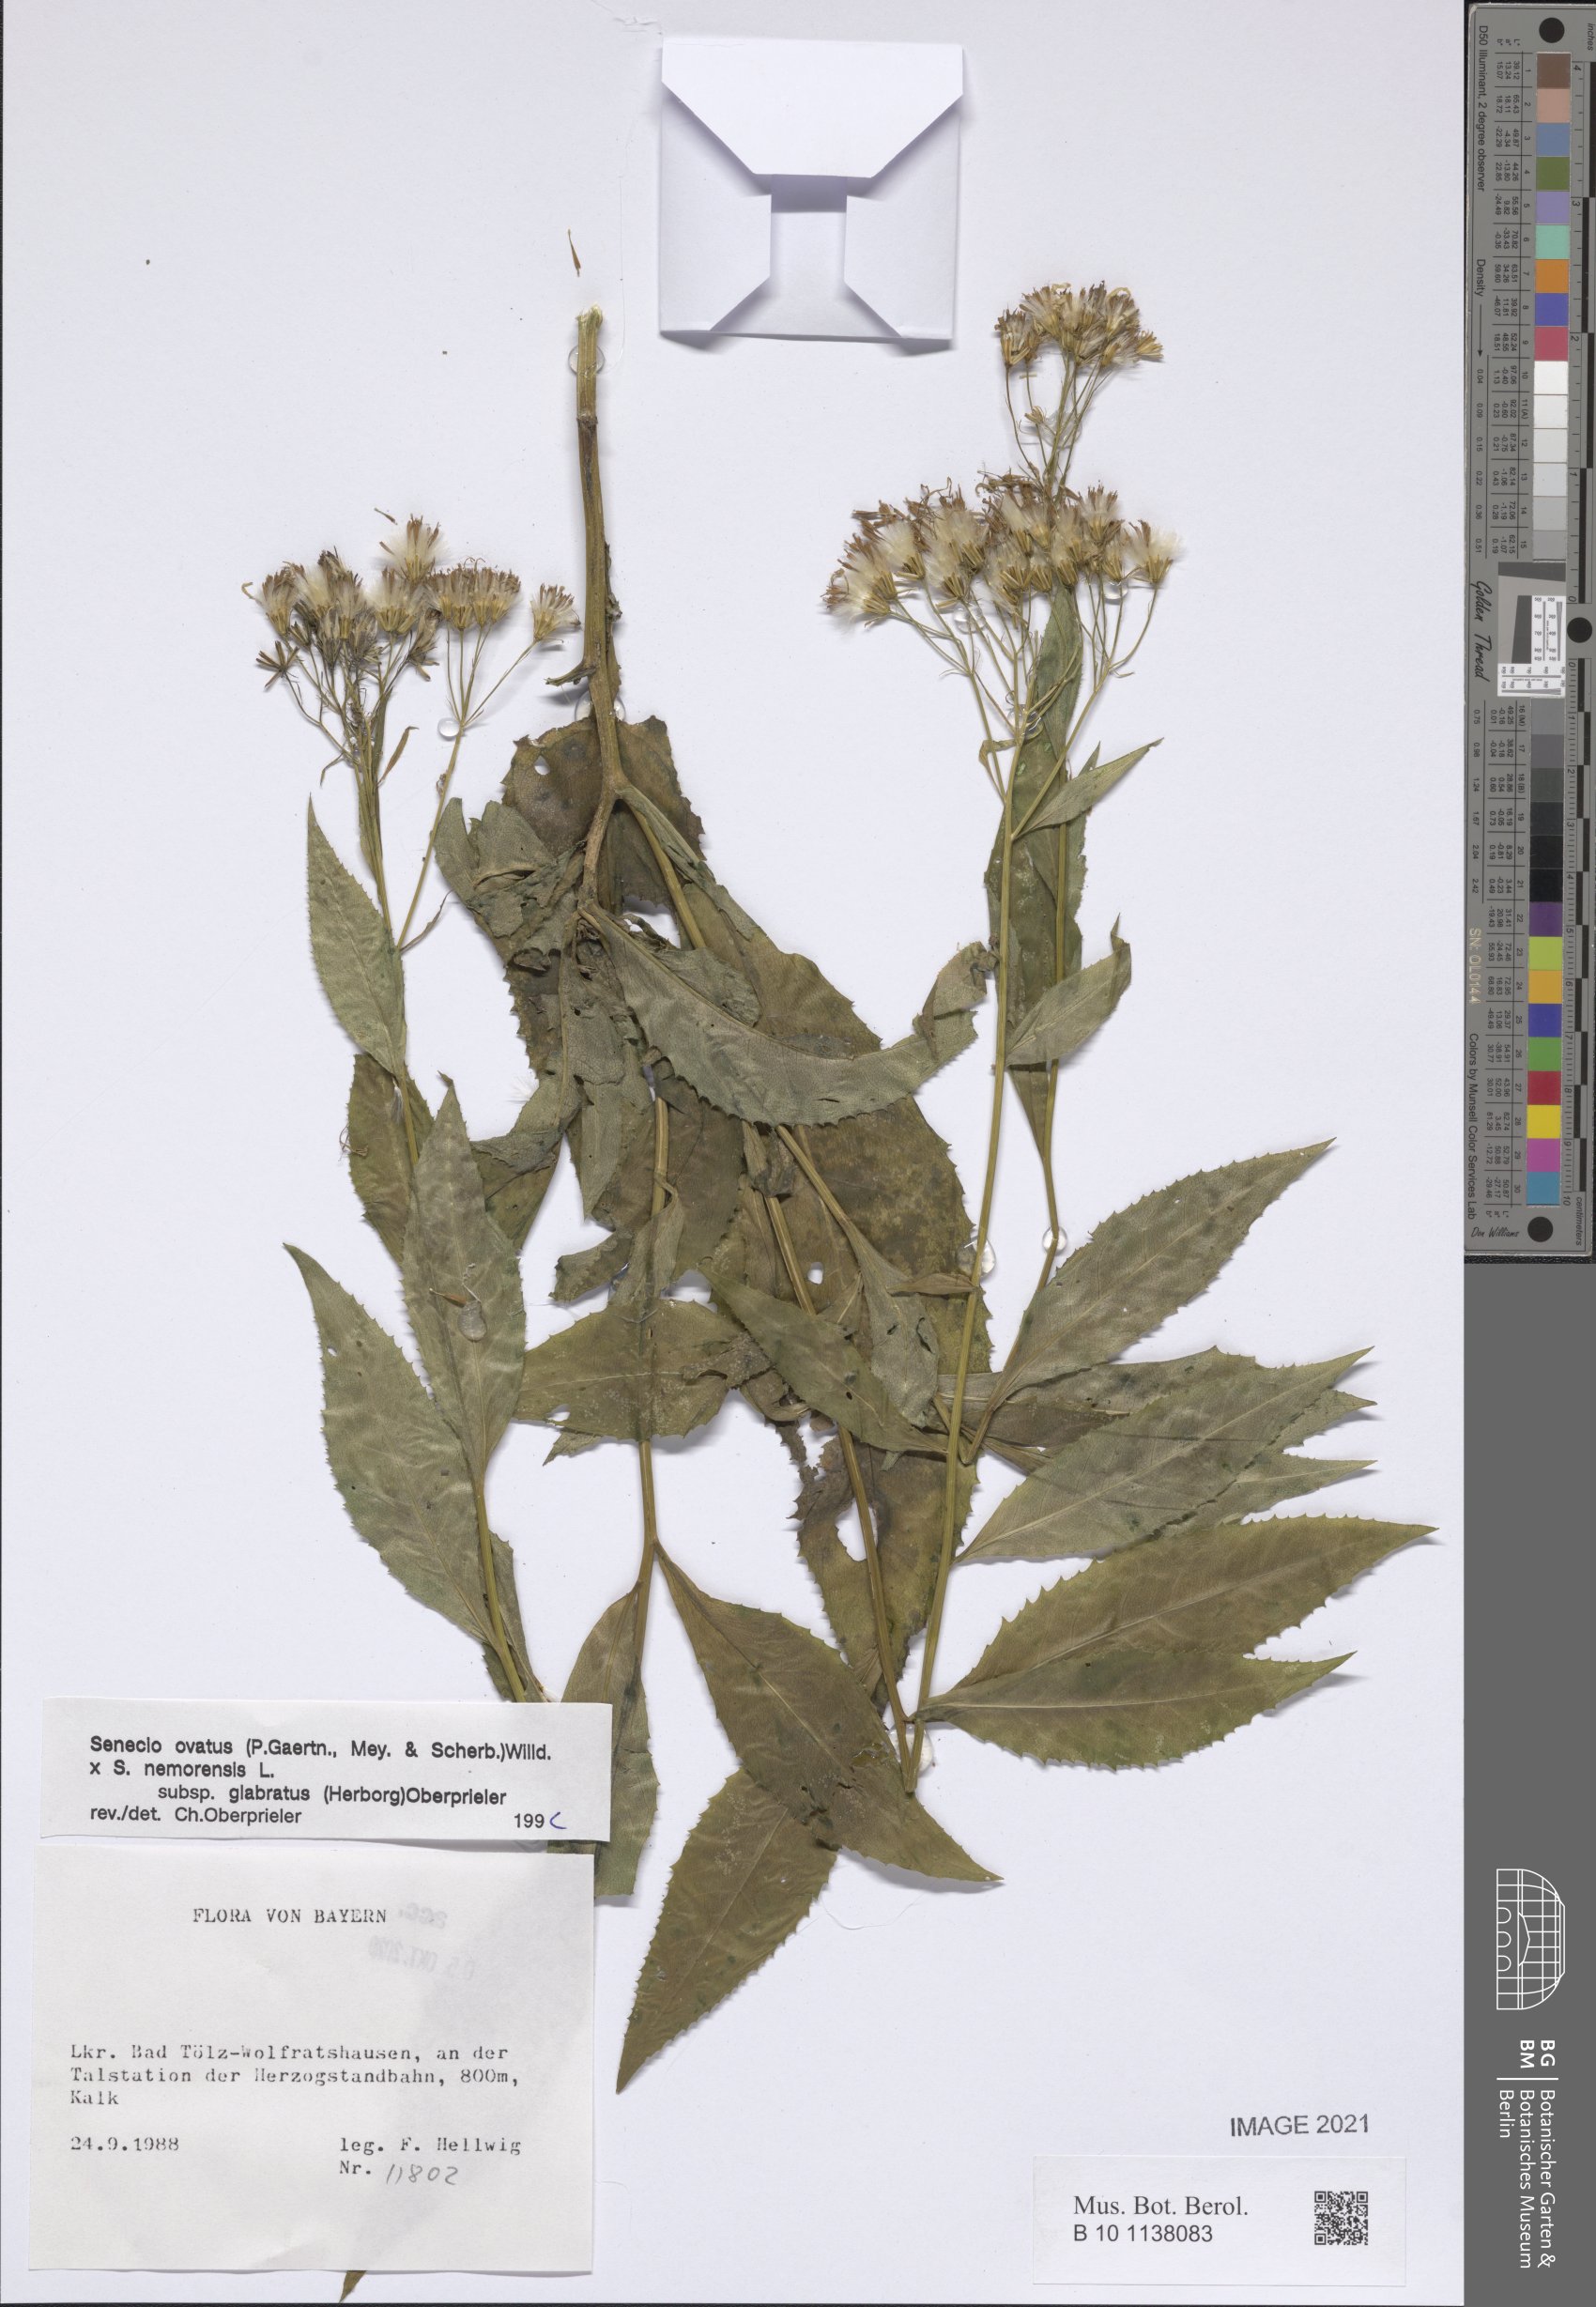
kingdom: Plantae
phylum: Tracheophyta
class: Magnoliopsida
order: Asterales
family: Asteraceae
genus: Senecio
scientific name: Senecio ovatus
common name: Wood ragwort
